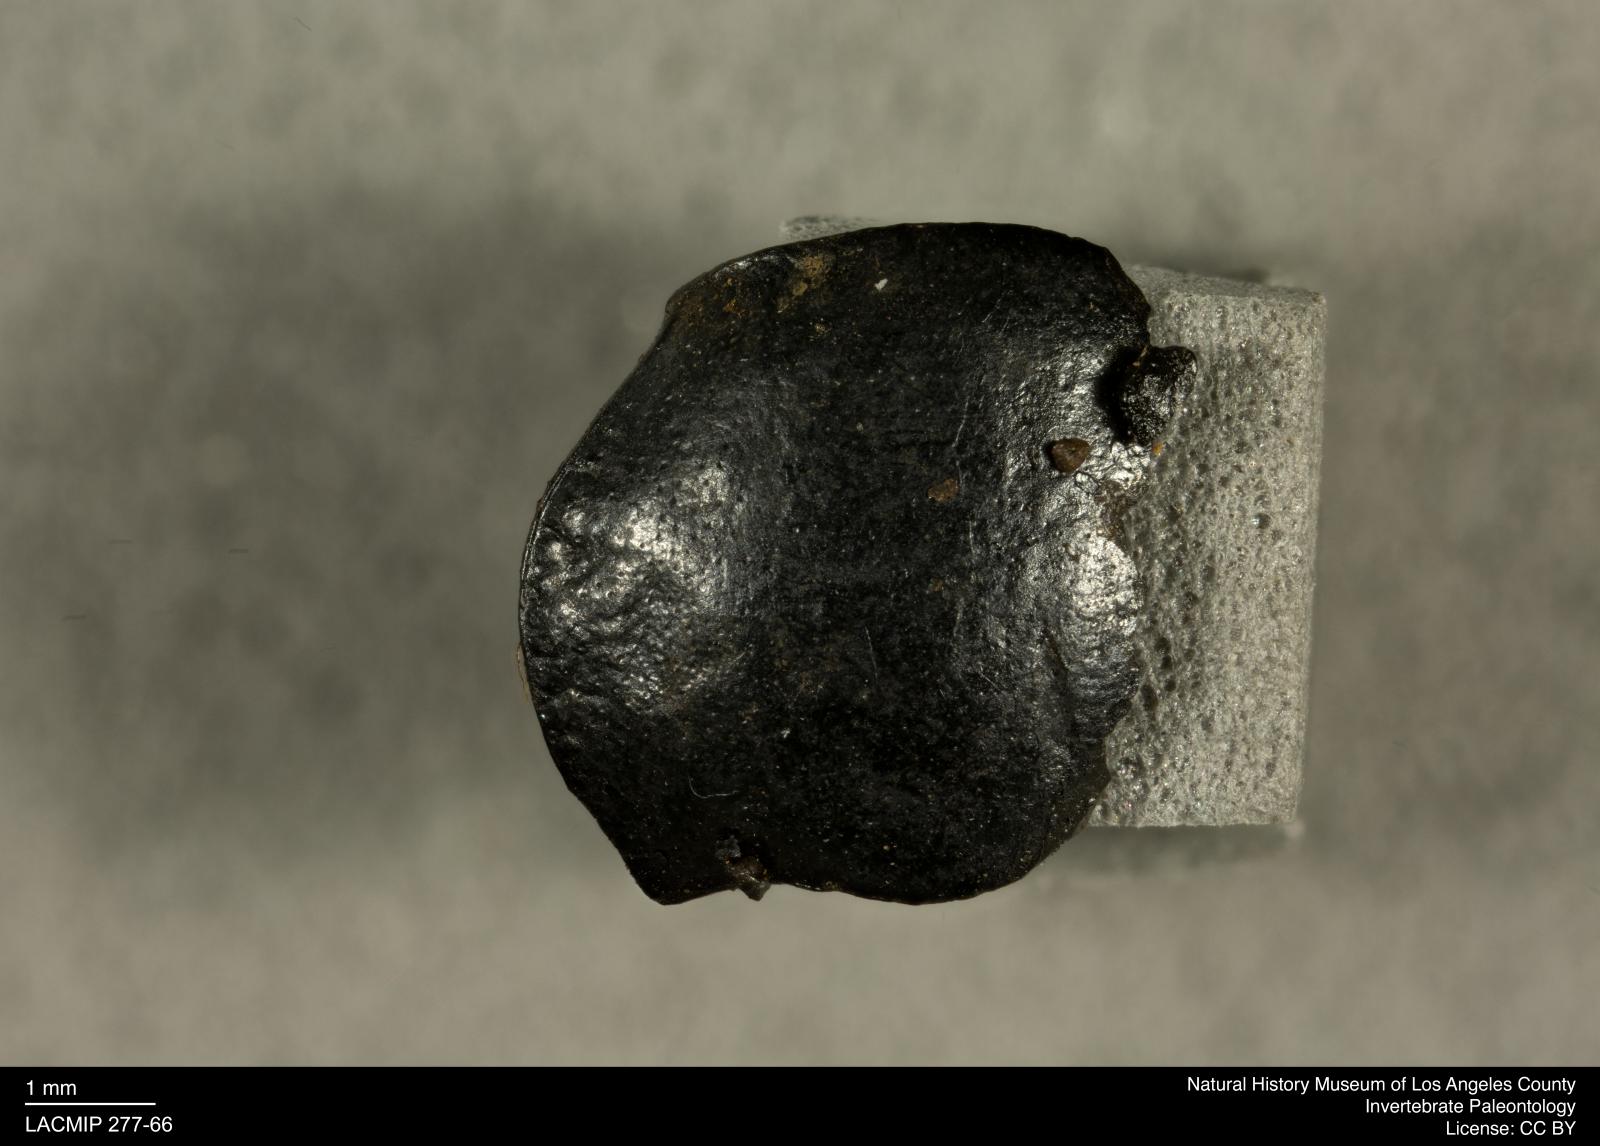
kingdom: Animalia
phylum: Arthropoda
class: Insecta
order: Coleoptera
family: Tenebrionidae
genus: Coniontis
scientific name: Coniontis abdominalis
